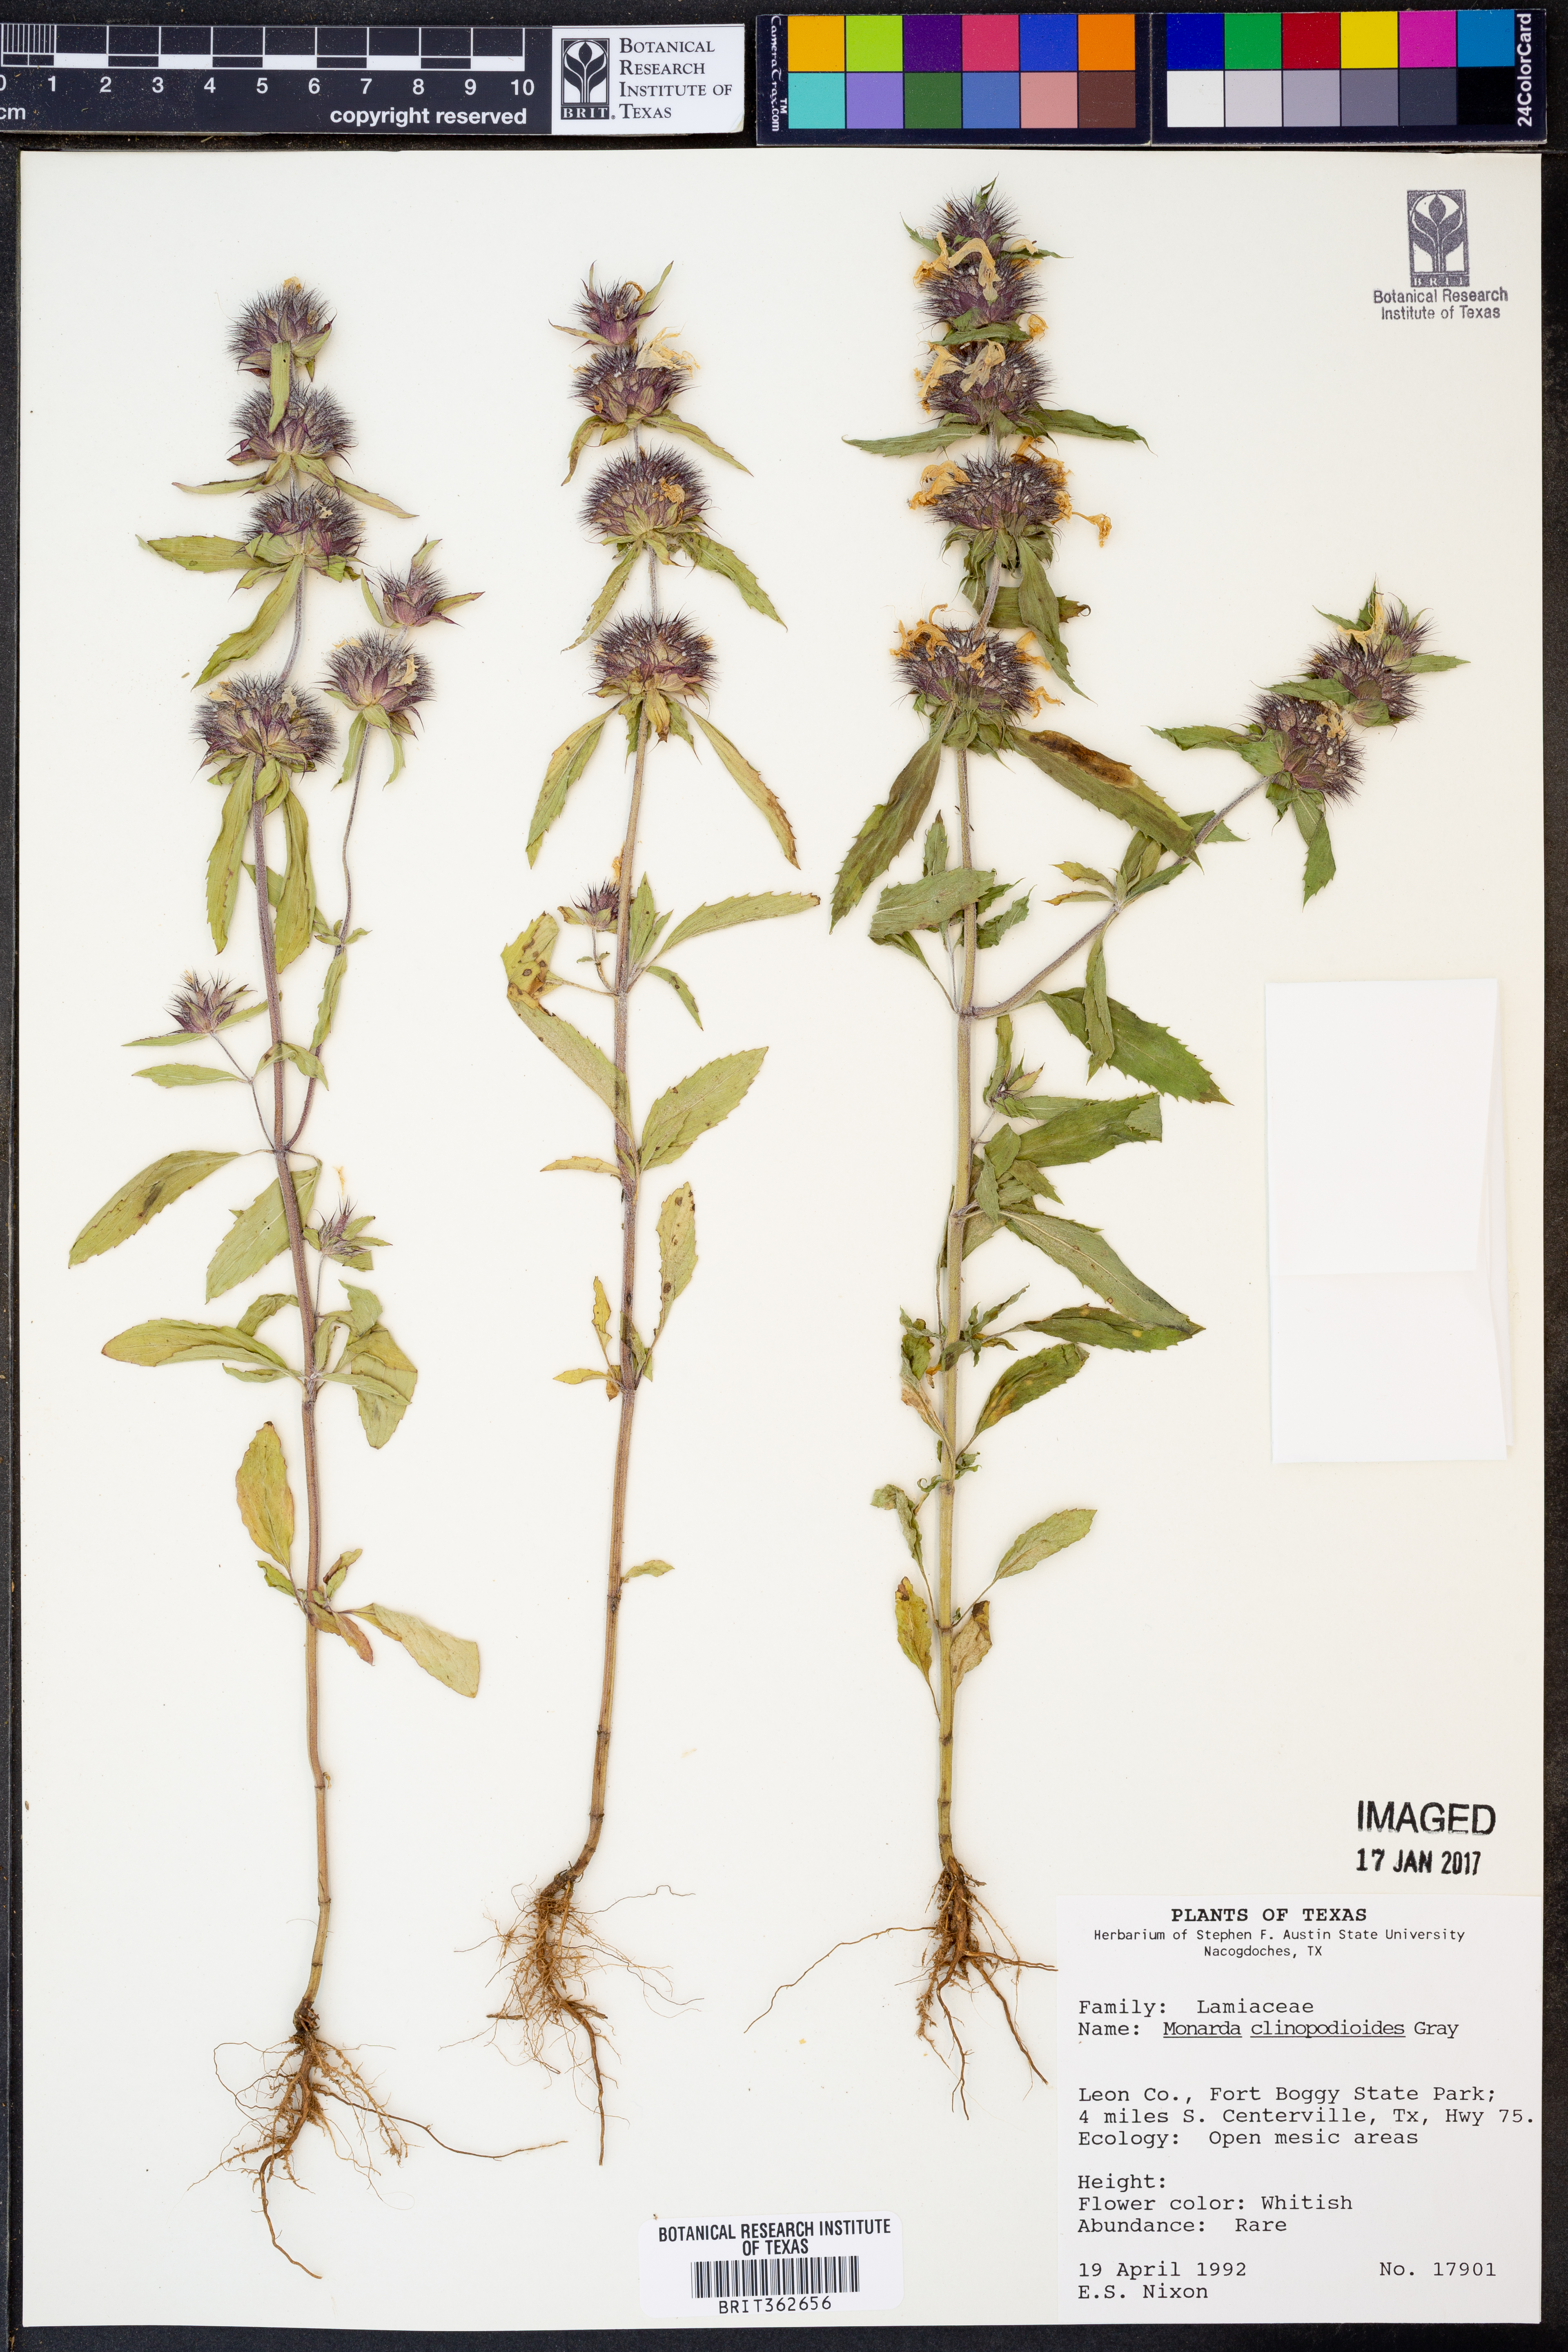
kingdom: Plantae
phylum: Tracheophyta
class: Magnoliopsida
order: Lamiales
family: Lamiaceae
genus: Monarda
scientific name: Monarda clinopodioides
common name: Basil beebalm
